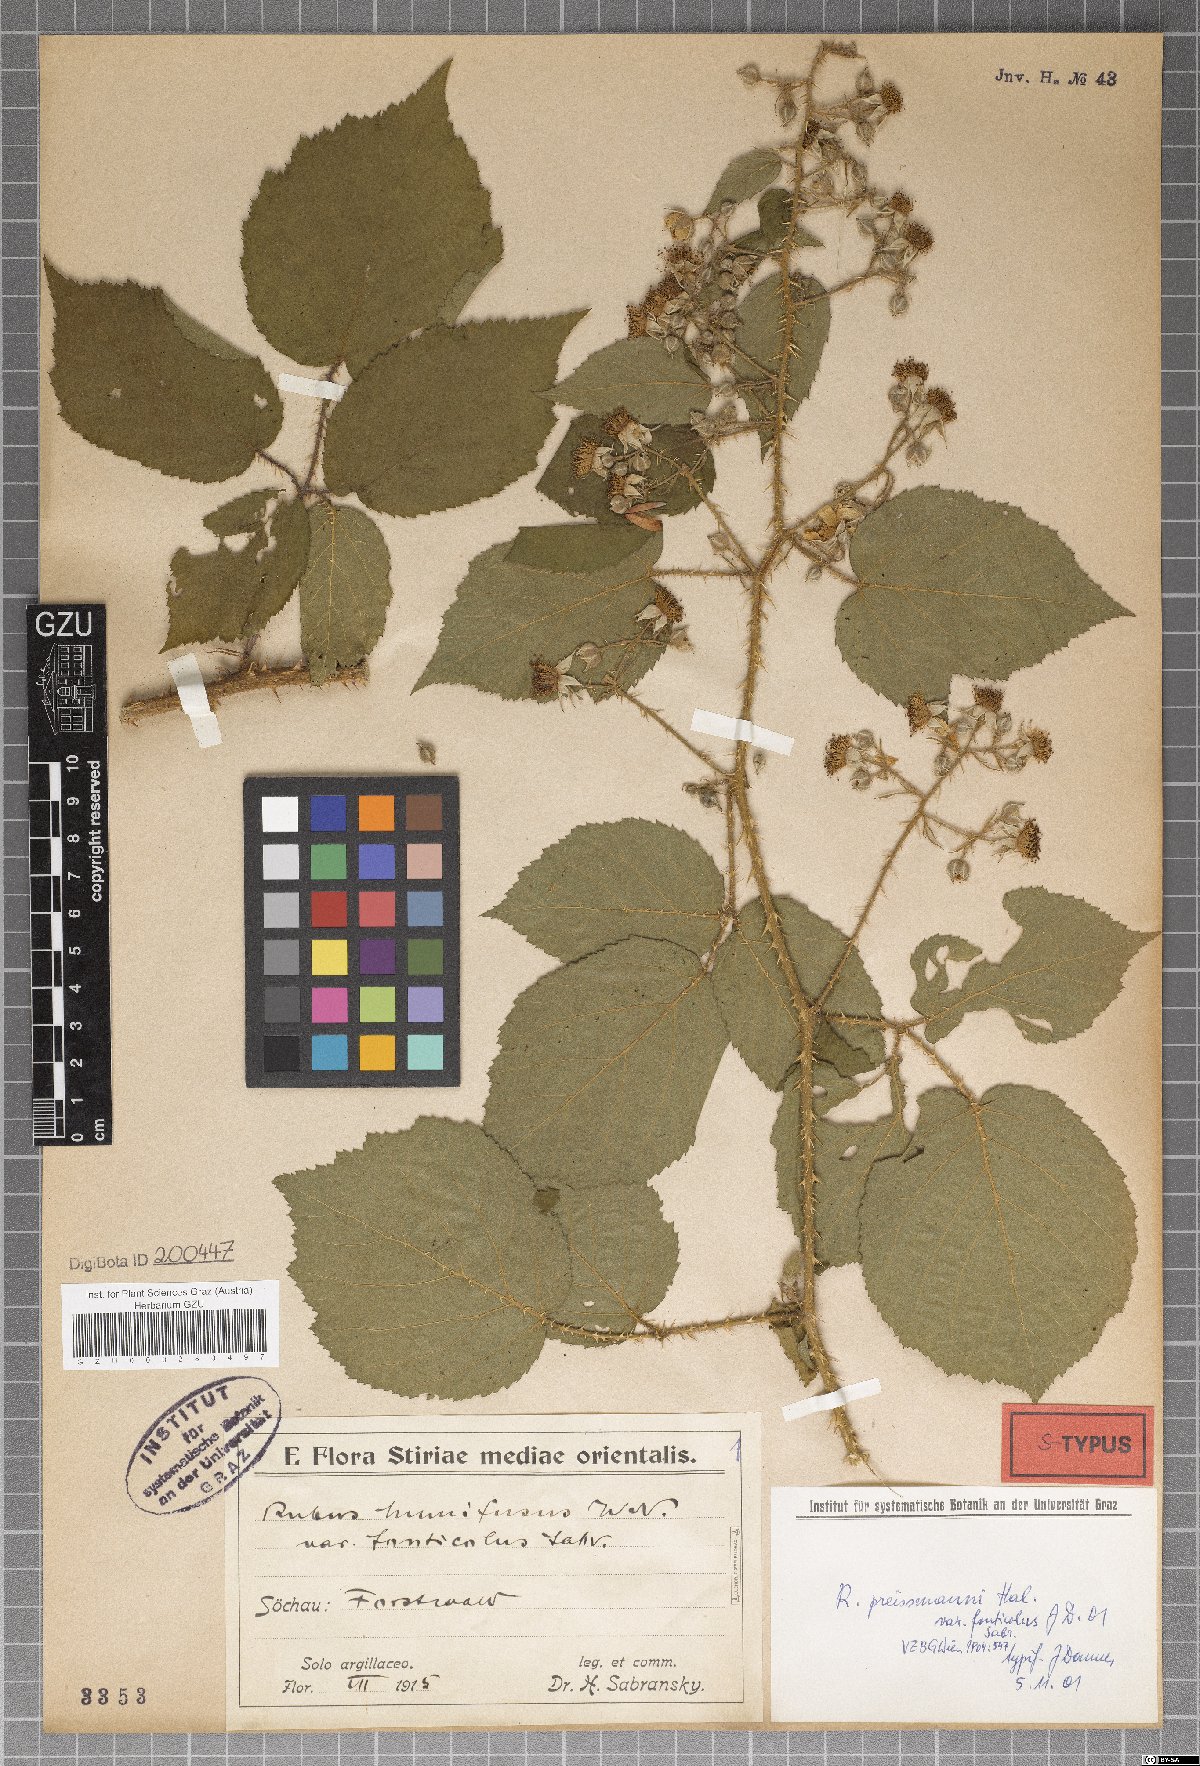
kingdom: Plantae
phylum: Tracheophyta
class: Magnoliopsida
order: Rosales
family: Rosaceae
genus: Rubus
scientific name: Rubus schleicheri
